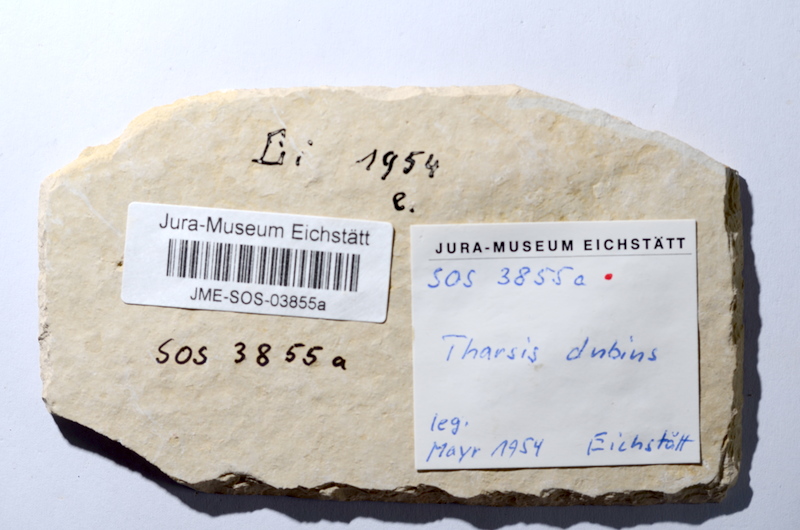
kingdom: Animalia
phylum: Chordata
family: Ascalaboidae
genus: Tharsis
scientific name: Tharsis dubius
